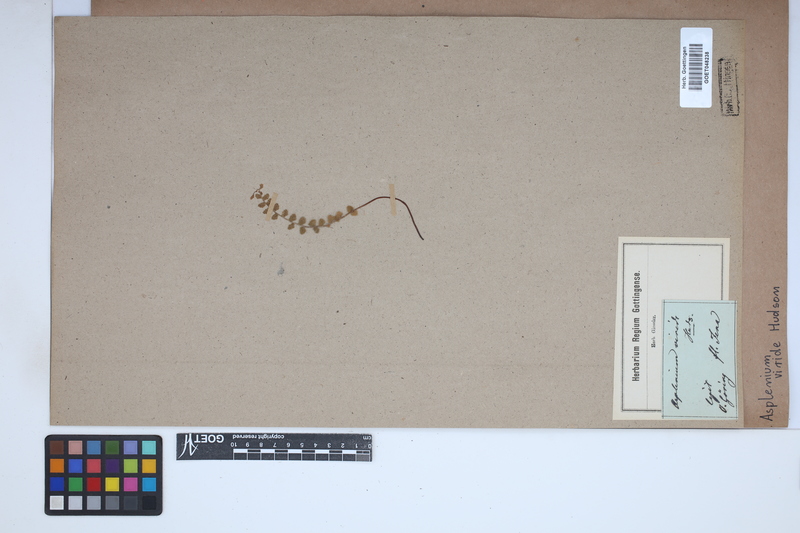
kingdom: Plantae
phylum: Tracheophyta
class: Polypodiopsida
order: Polypodiales
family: Aspleniaceae
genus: Asplenium
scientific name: Asplenium viride
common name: Green spleenwort
